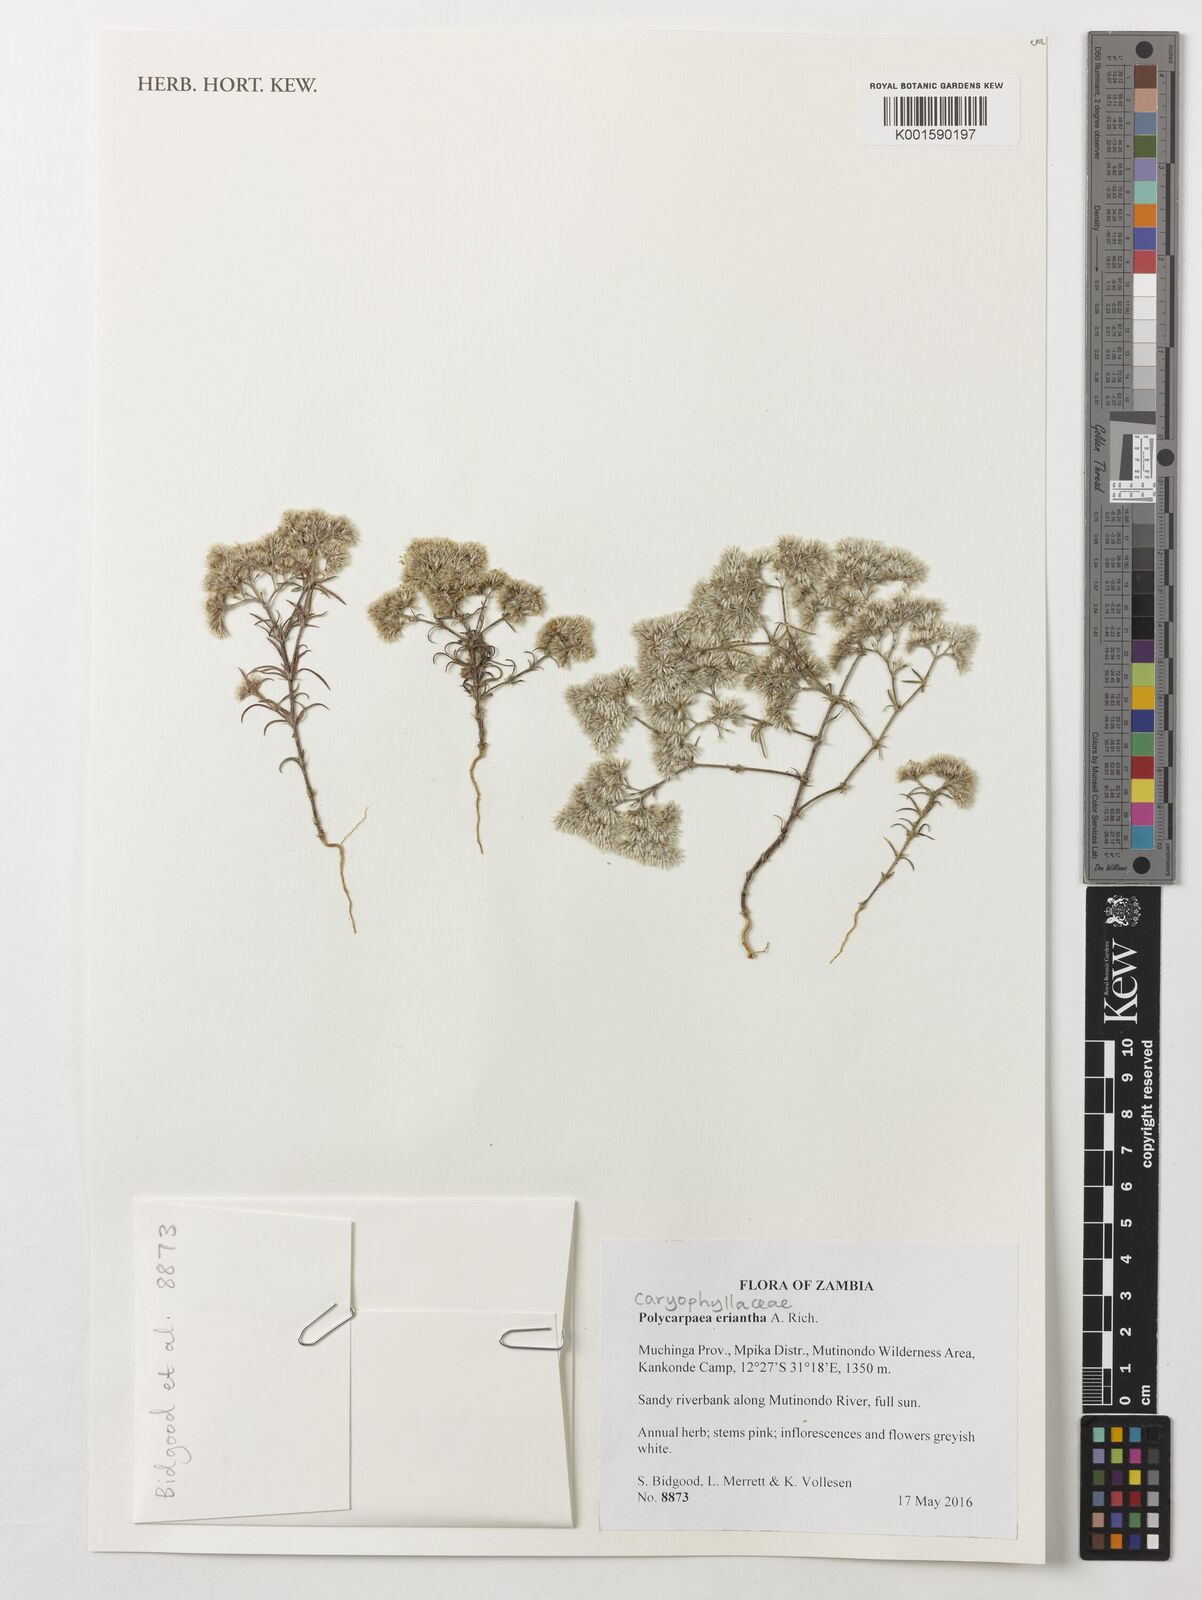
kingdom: Plantae
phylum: Tracheophyta
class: Magnoliopsida
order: Caryophyllales
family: Caryophyllaceae
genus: Polycarpaea
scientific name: Polycarpaea eriantha
